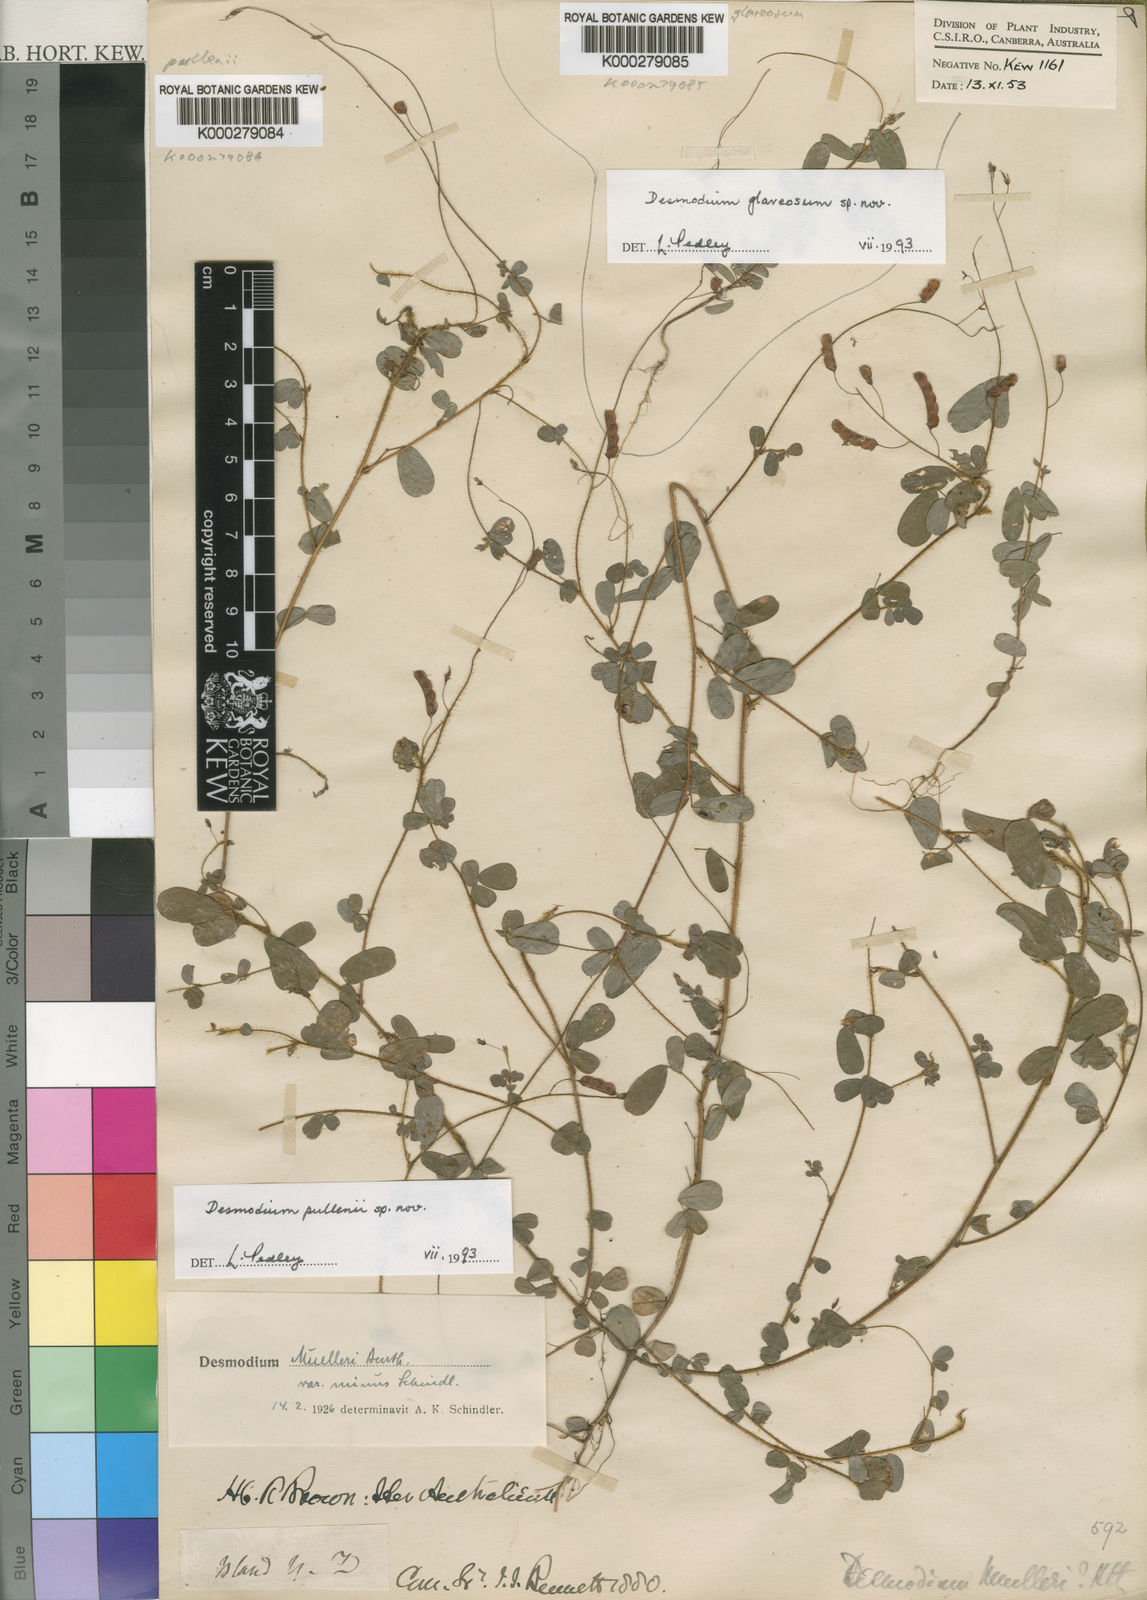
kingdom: Plantae
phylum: Tracheophyta
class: Magnoliopsida
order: Fabales
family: Fabaceae
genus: Grona
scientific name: Grona glareosa
